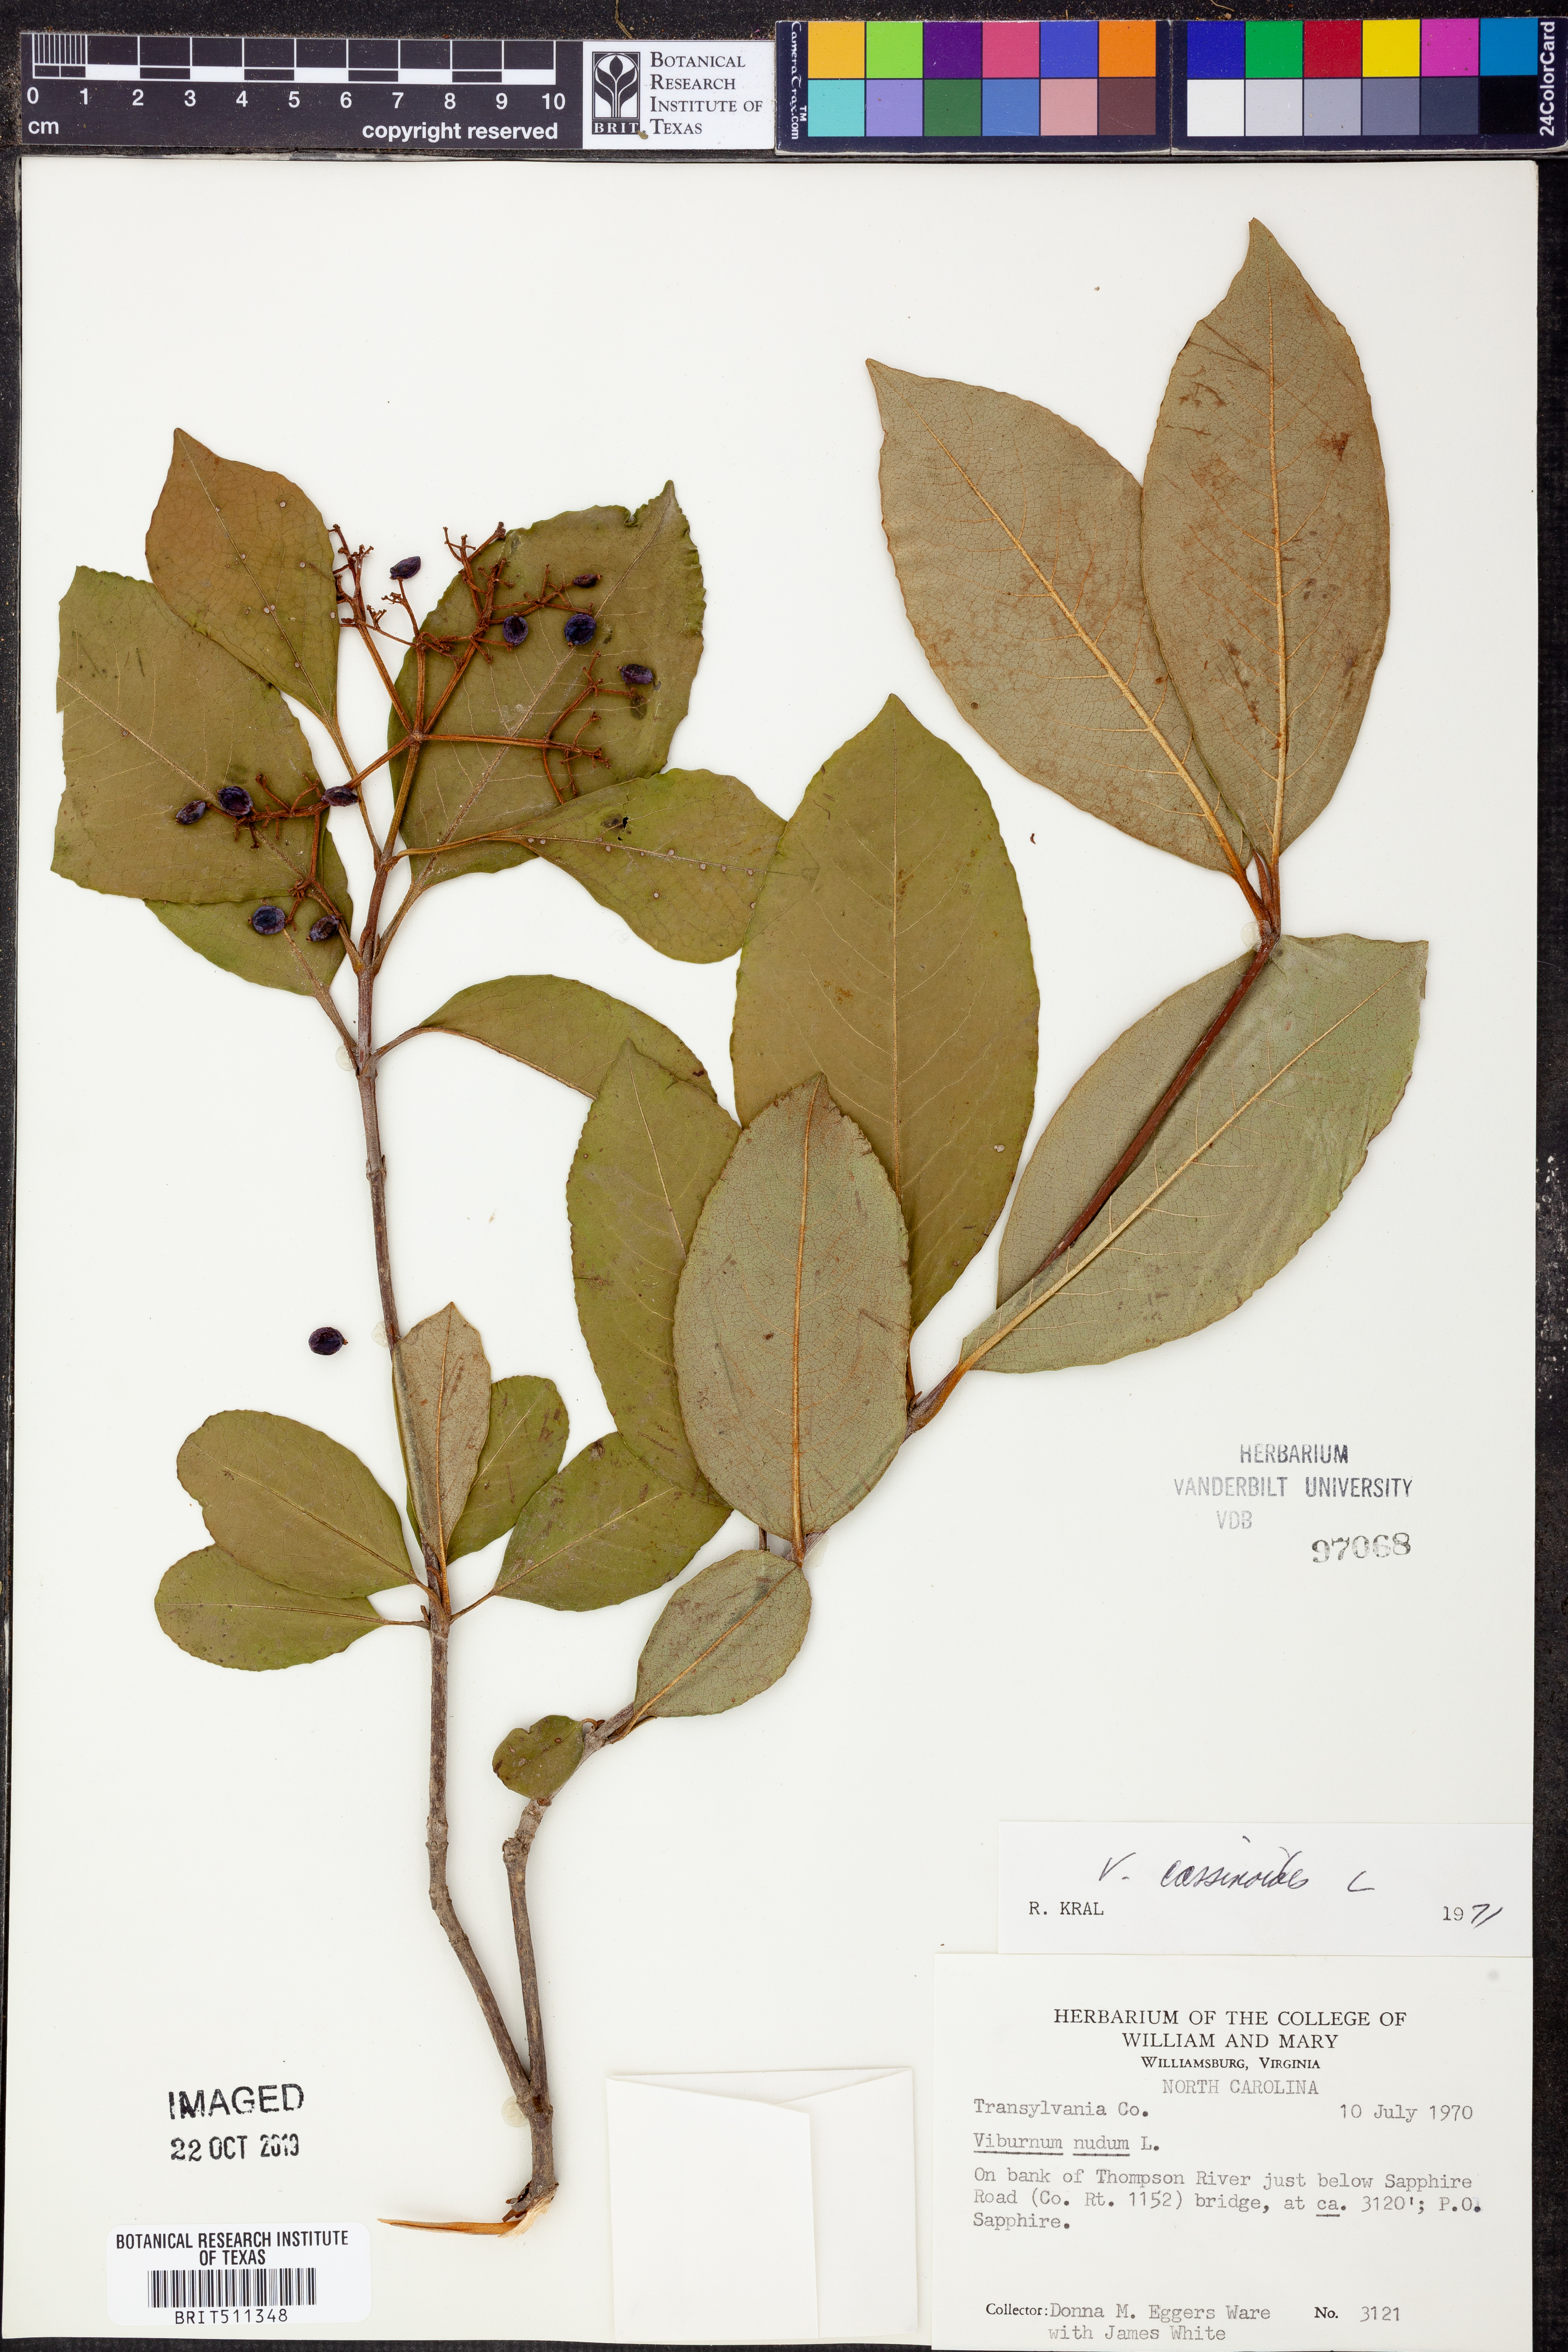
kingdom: Plantae
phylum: Tracheophyta
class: Magnoliopsida
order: Dipsacales
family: Viburnaceae
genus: Viburnum
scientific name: Viburnum cassinoides
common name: Swamp haw
